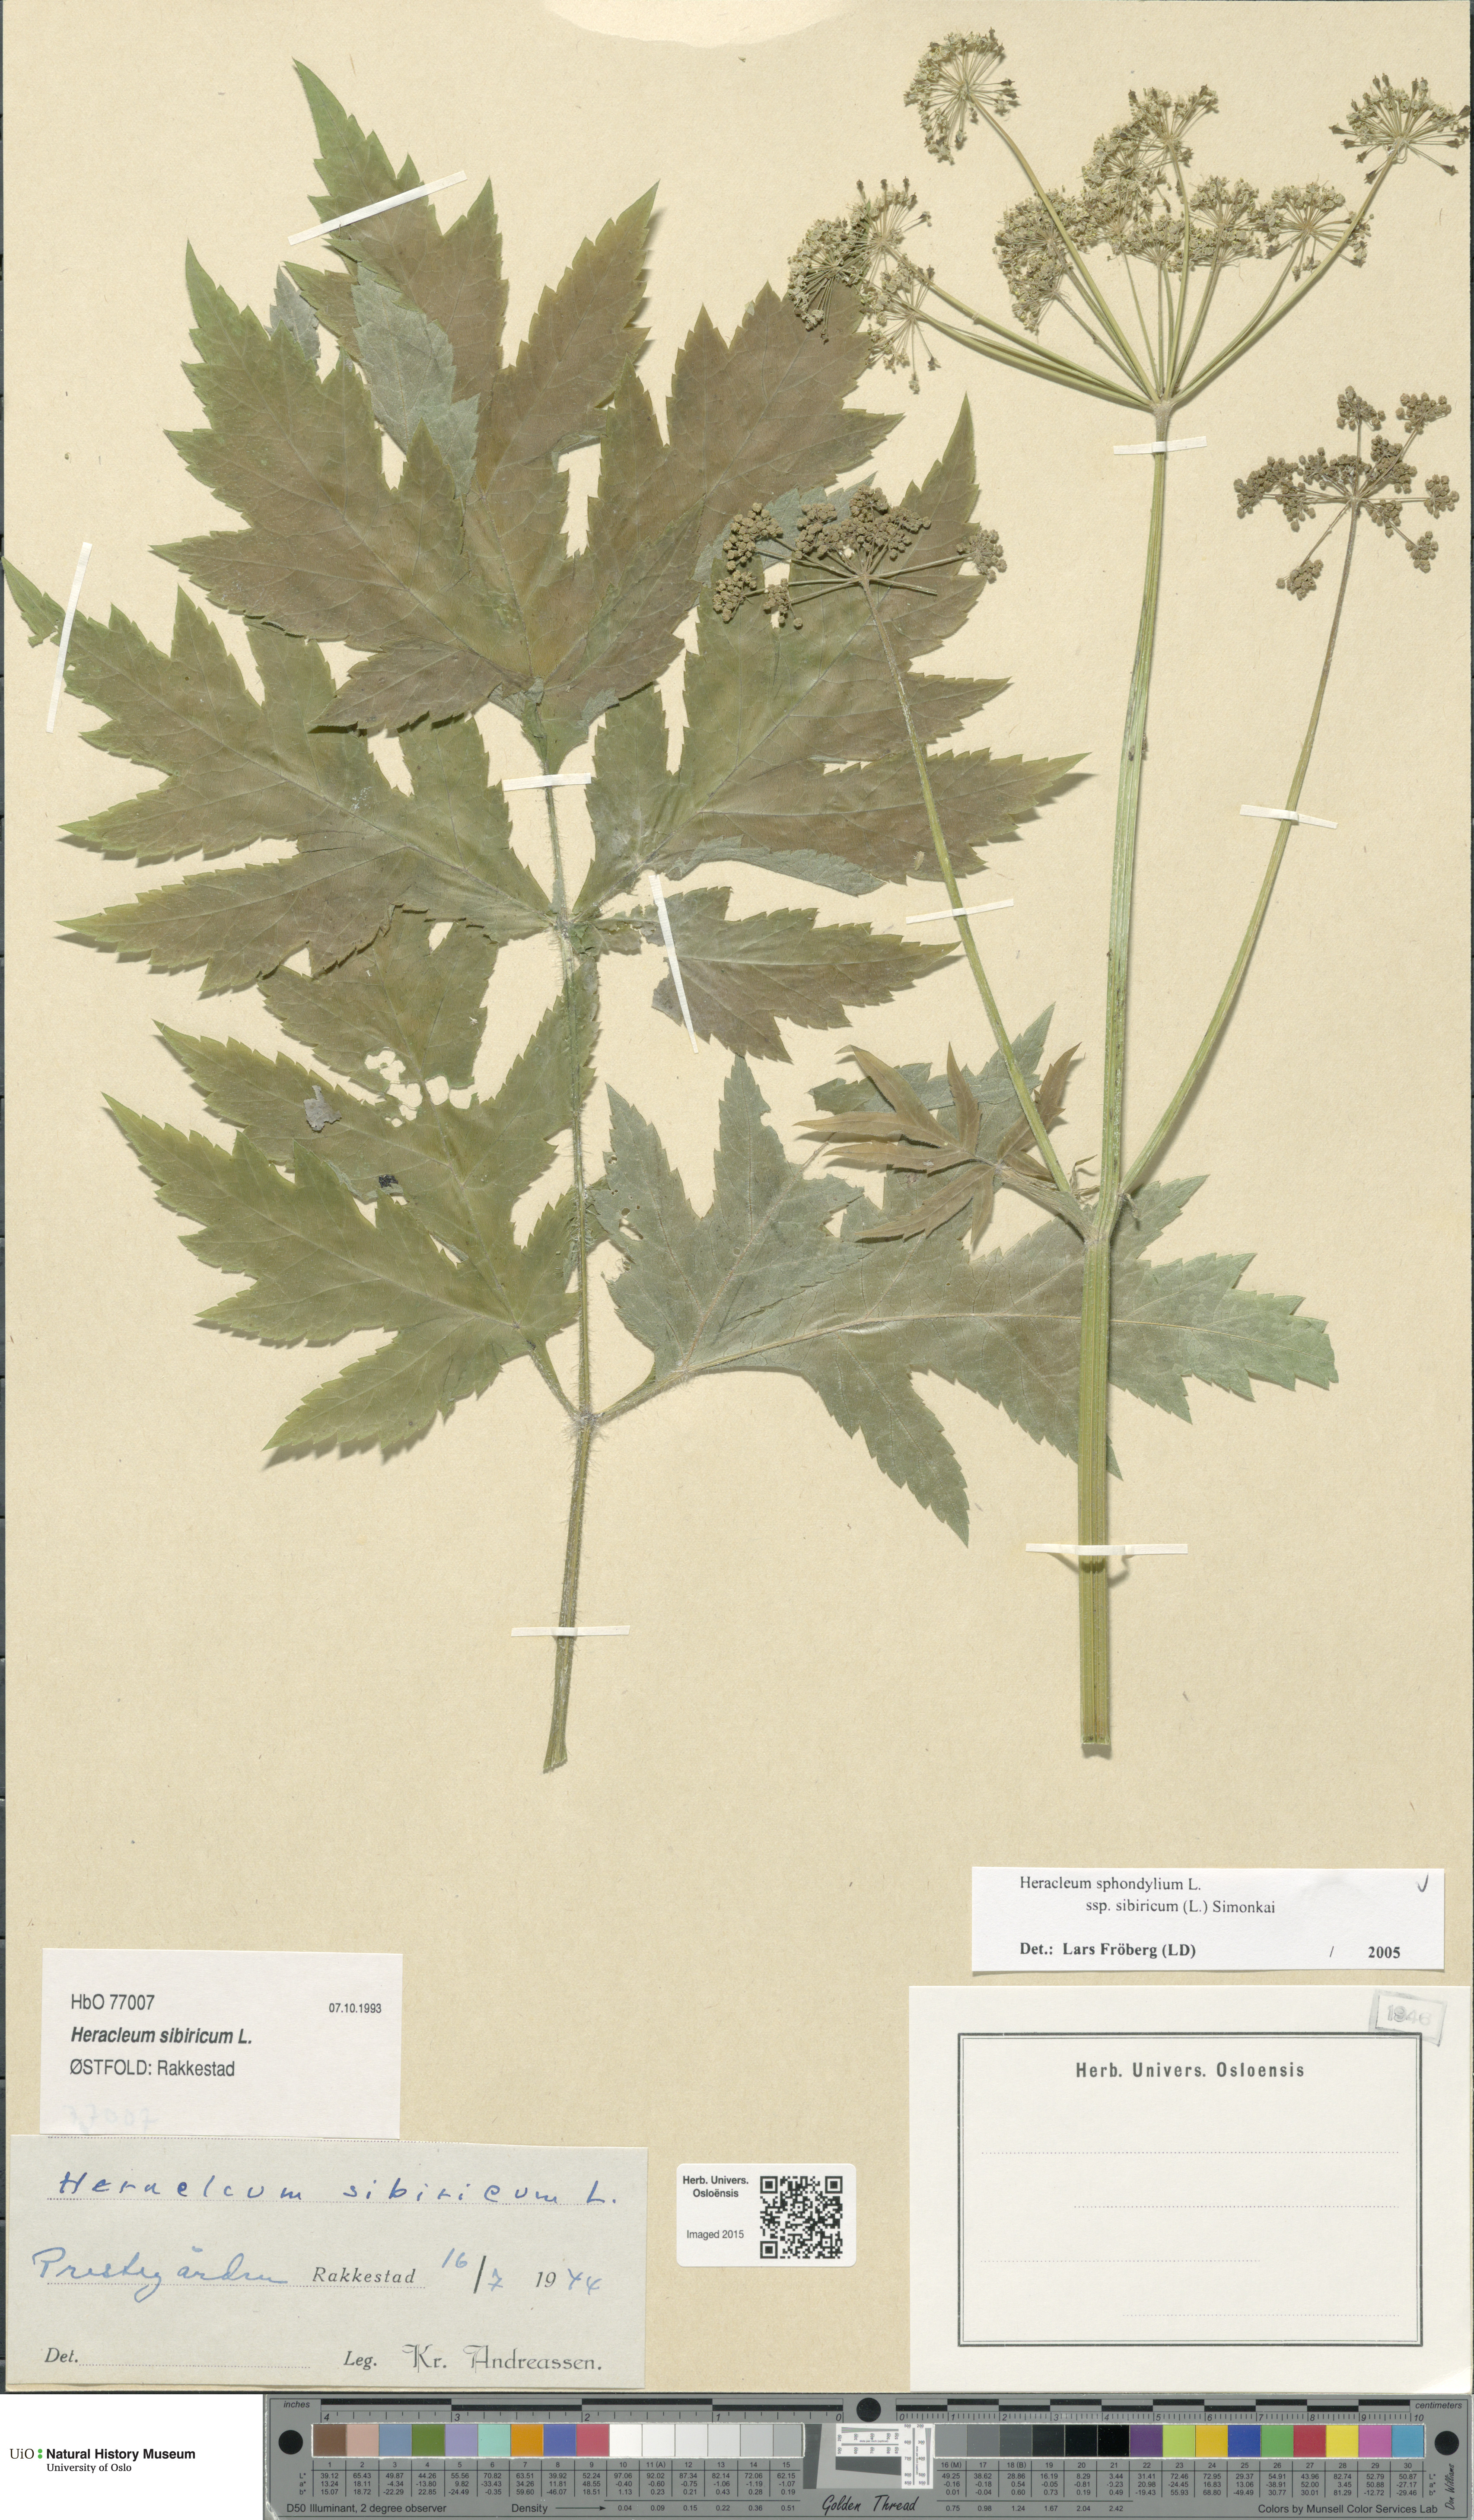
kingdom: Plantae
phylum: Tracheophyta
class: Magnoliopsida
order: Apiales
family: Apiaceae
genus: Heracleum
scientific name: Heracleum sphondylium
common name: Hogweed
